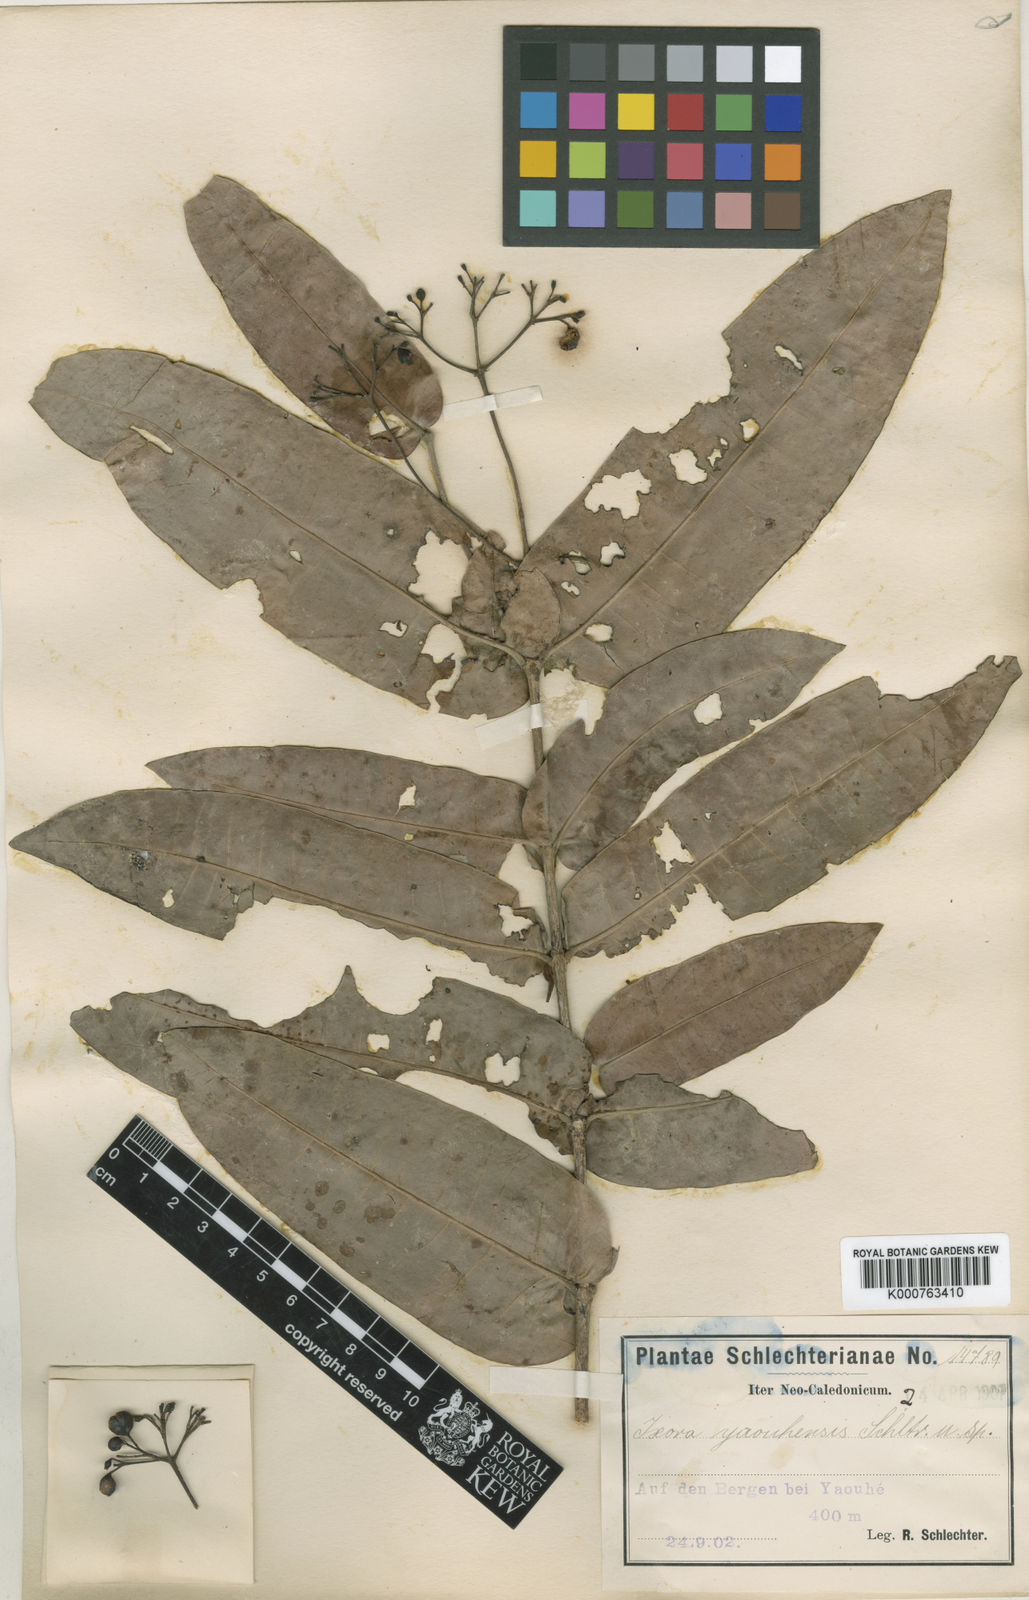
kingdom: Plantae
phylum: Tracheophyta
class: Magnoliopsida
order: Gentianales
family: Rubiaceae
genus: Ixora
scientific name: Ixora yaouhensis
